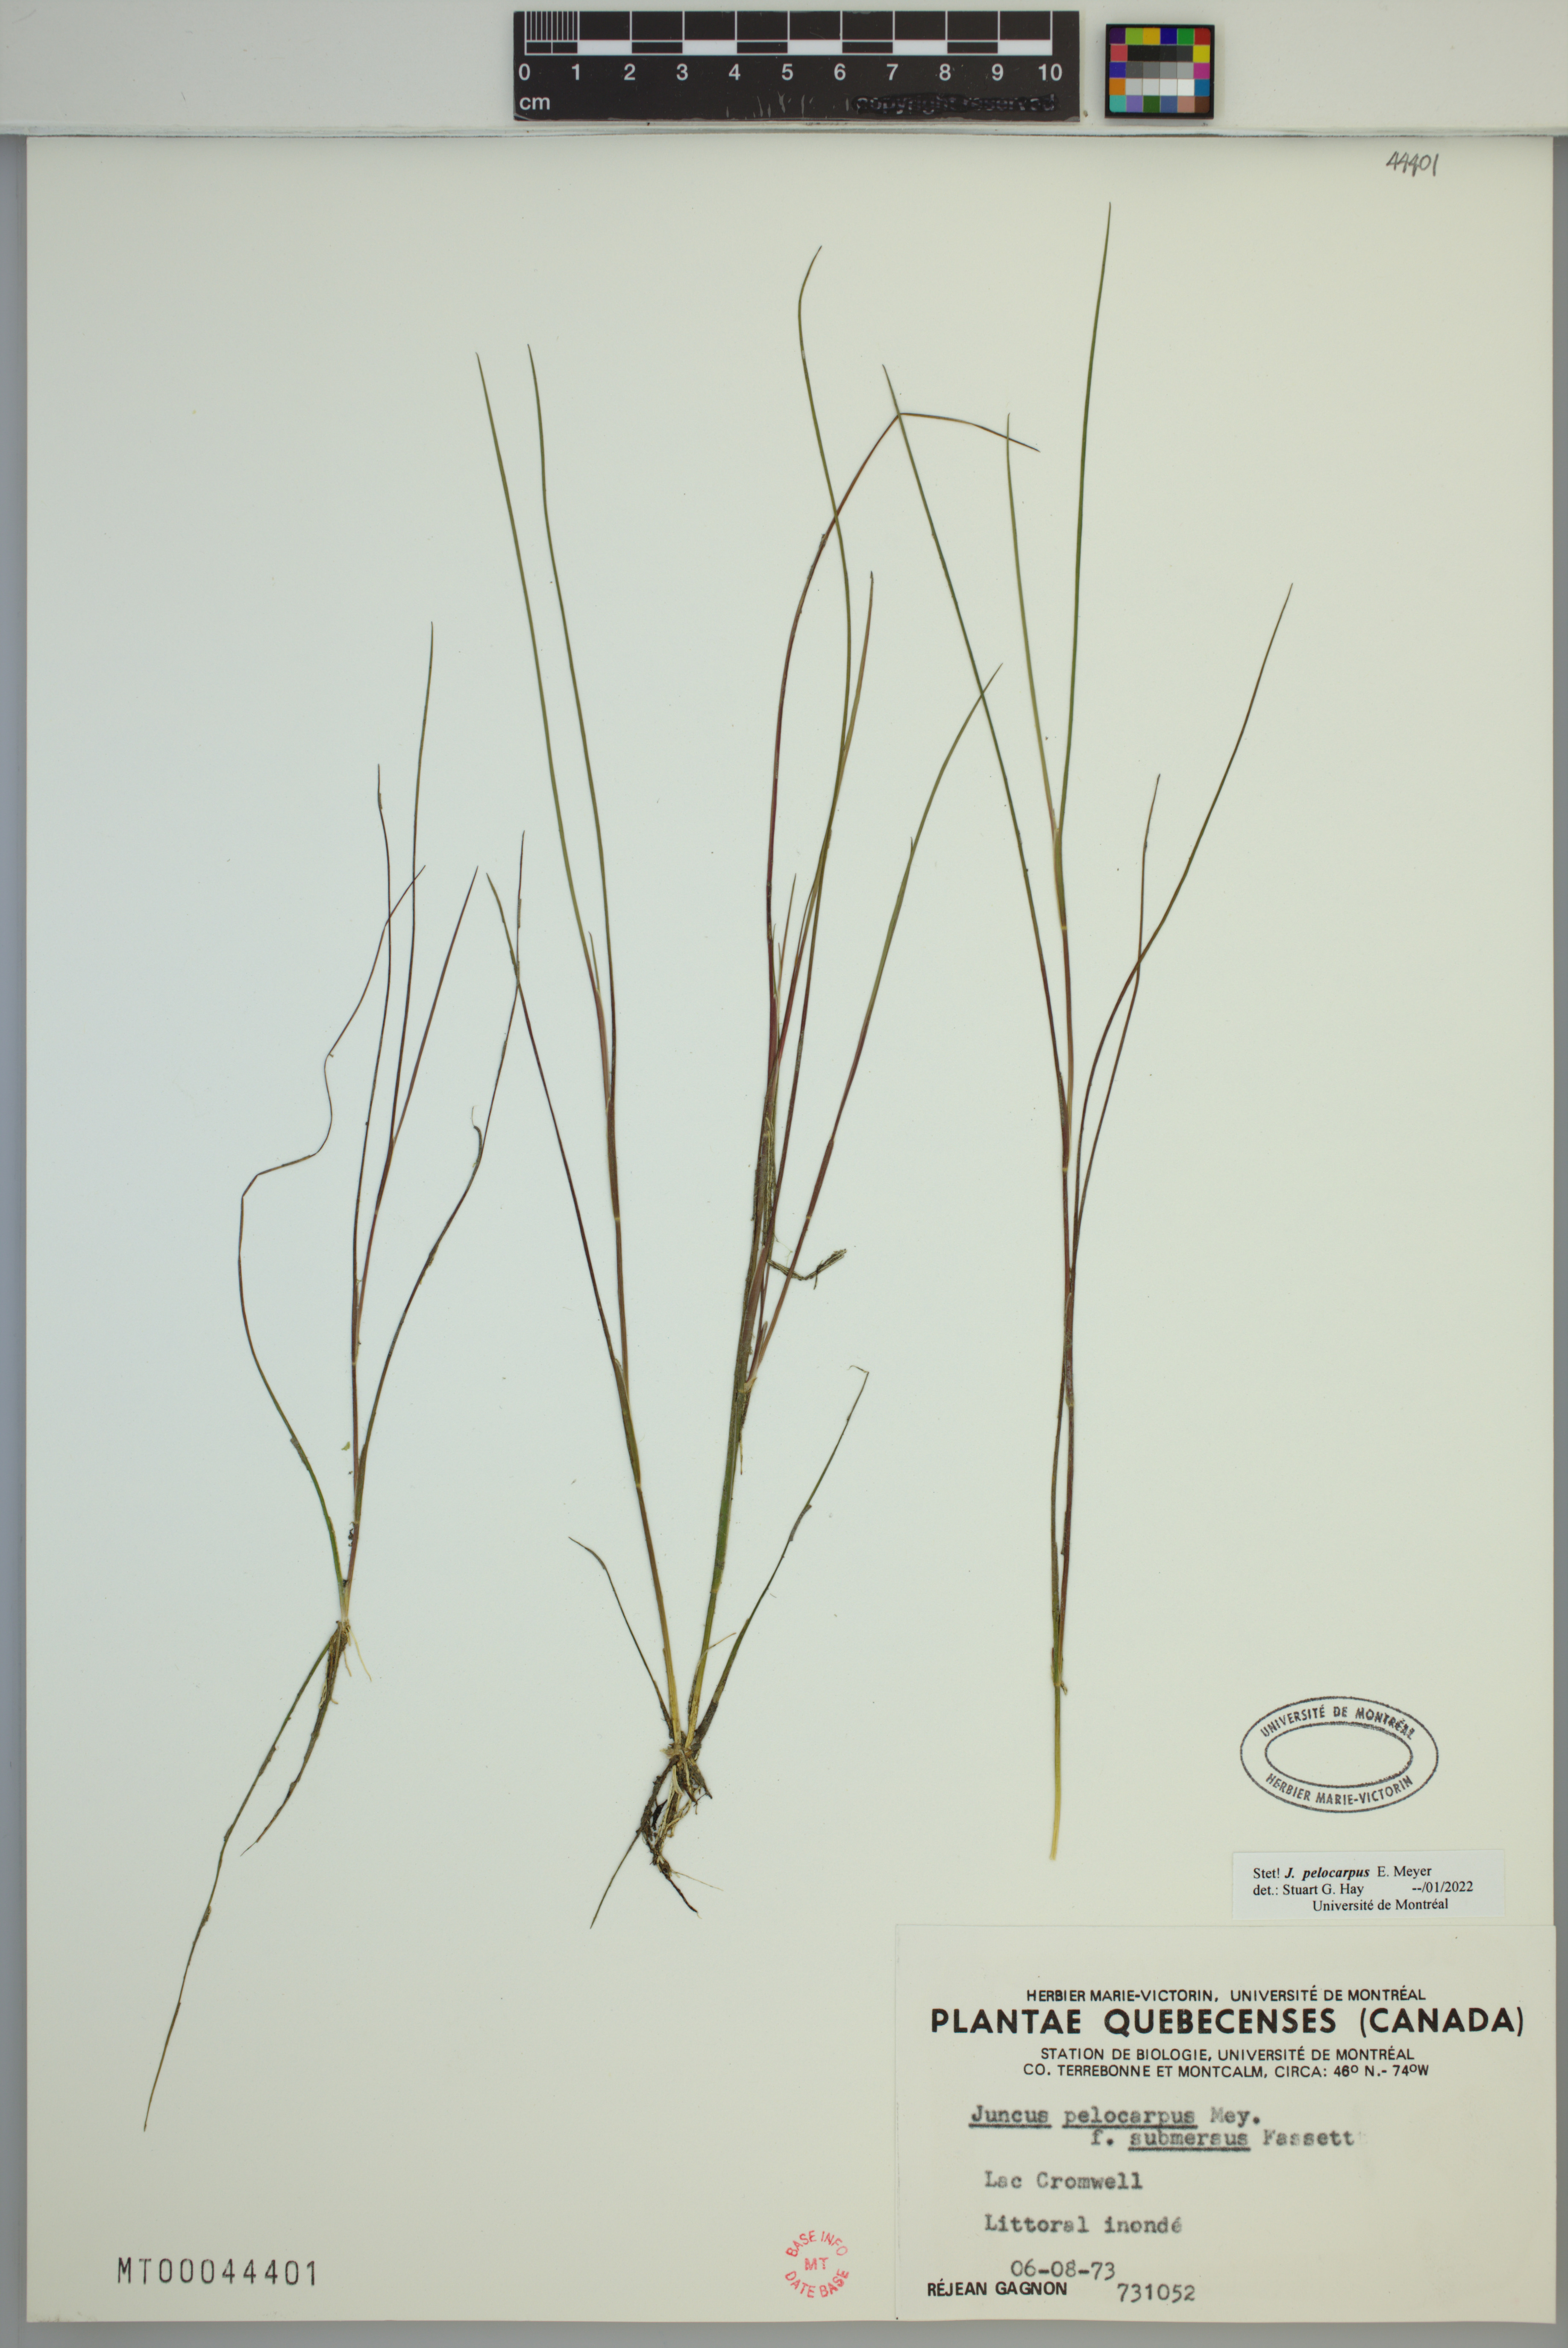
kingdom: Plantae
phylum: Tracheophyta
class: Liliopsida
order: Poales
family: Juncaceae
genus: Juncus
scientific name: Juncus pelocarpus
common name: Brown-fruited rush
